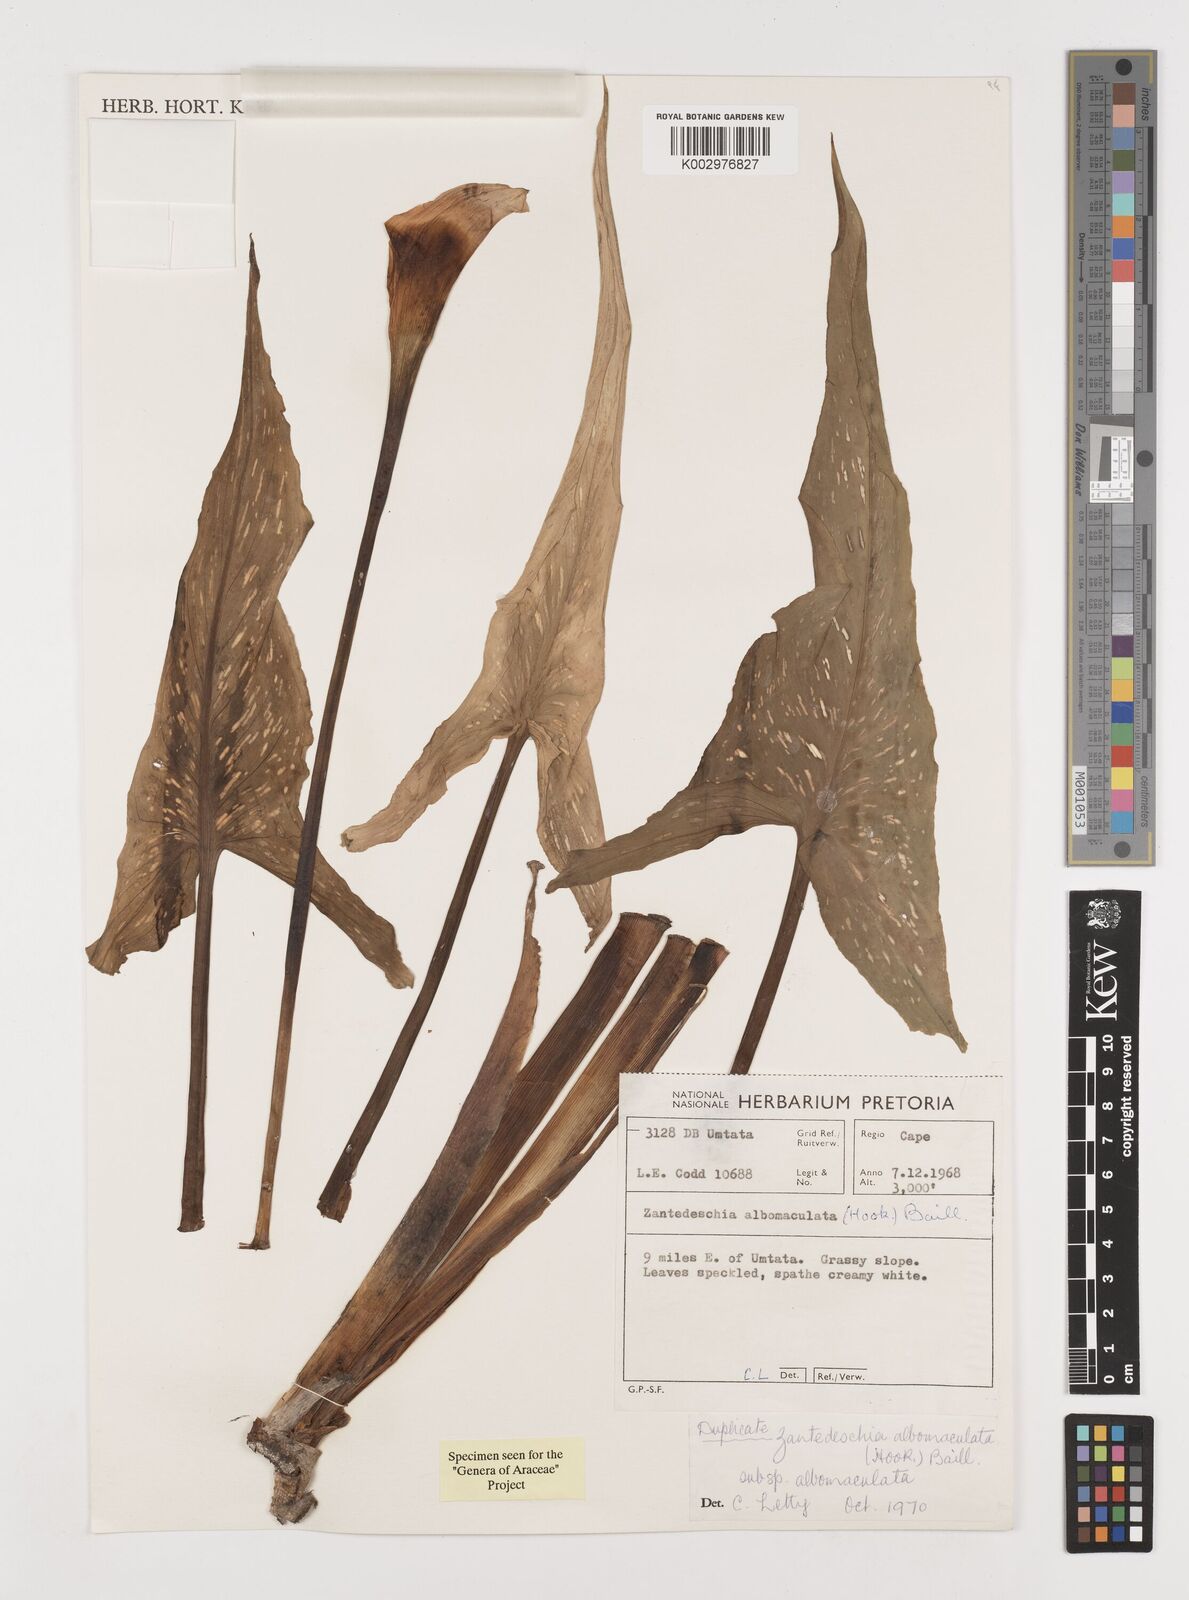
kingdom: Plantae
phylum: Tracheophyta
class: Liliopsida
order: Alismatales
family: Araceae
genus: Zantedeschia
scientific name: Zantedeschia albomaculata
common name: Spotted calla lily
